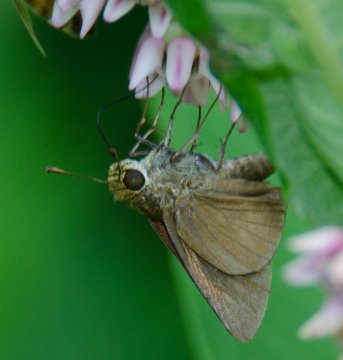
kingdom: Animalia
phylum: Arthropoda
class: Insecta
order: Lepidoptera
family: Hesperiidae
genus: Euphyes
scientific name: Euphyes vestris
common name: Dun Skipper
